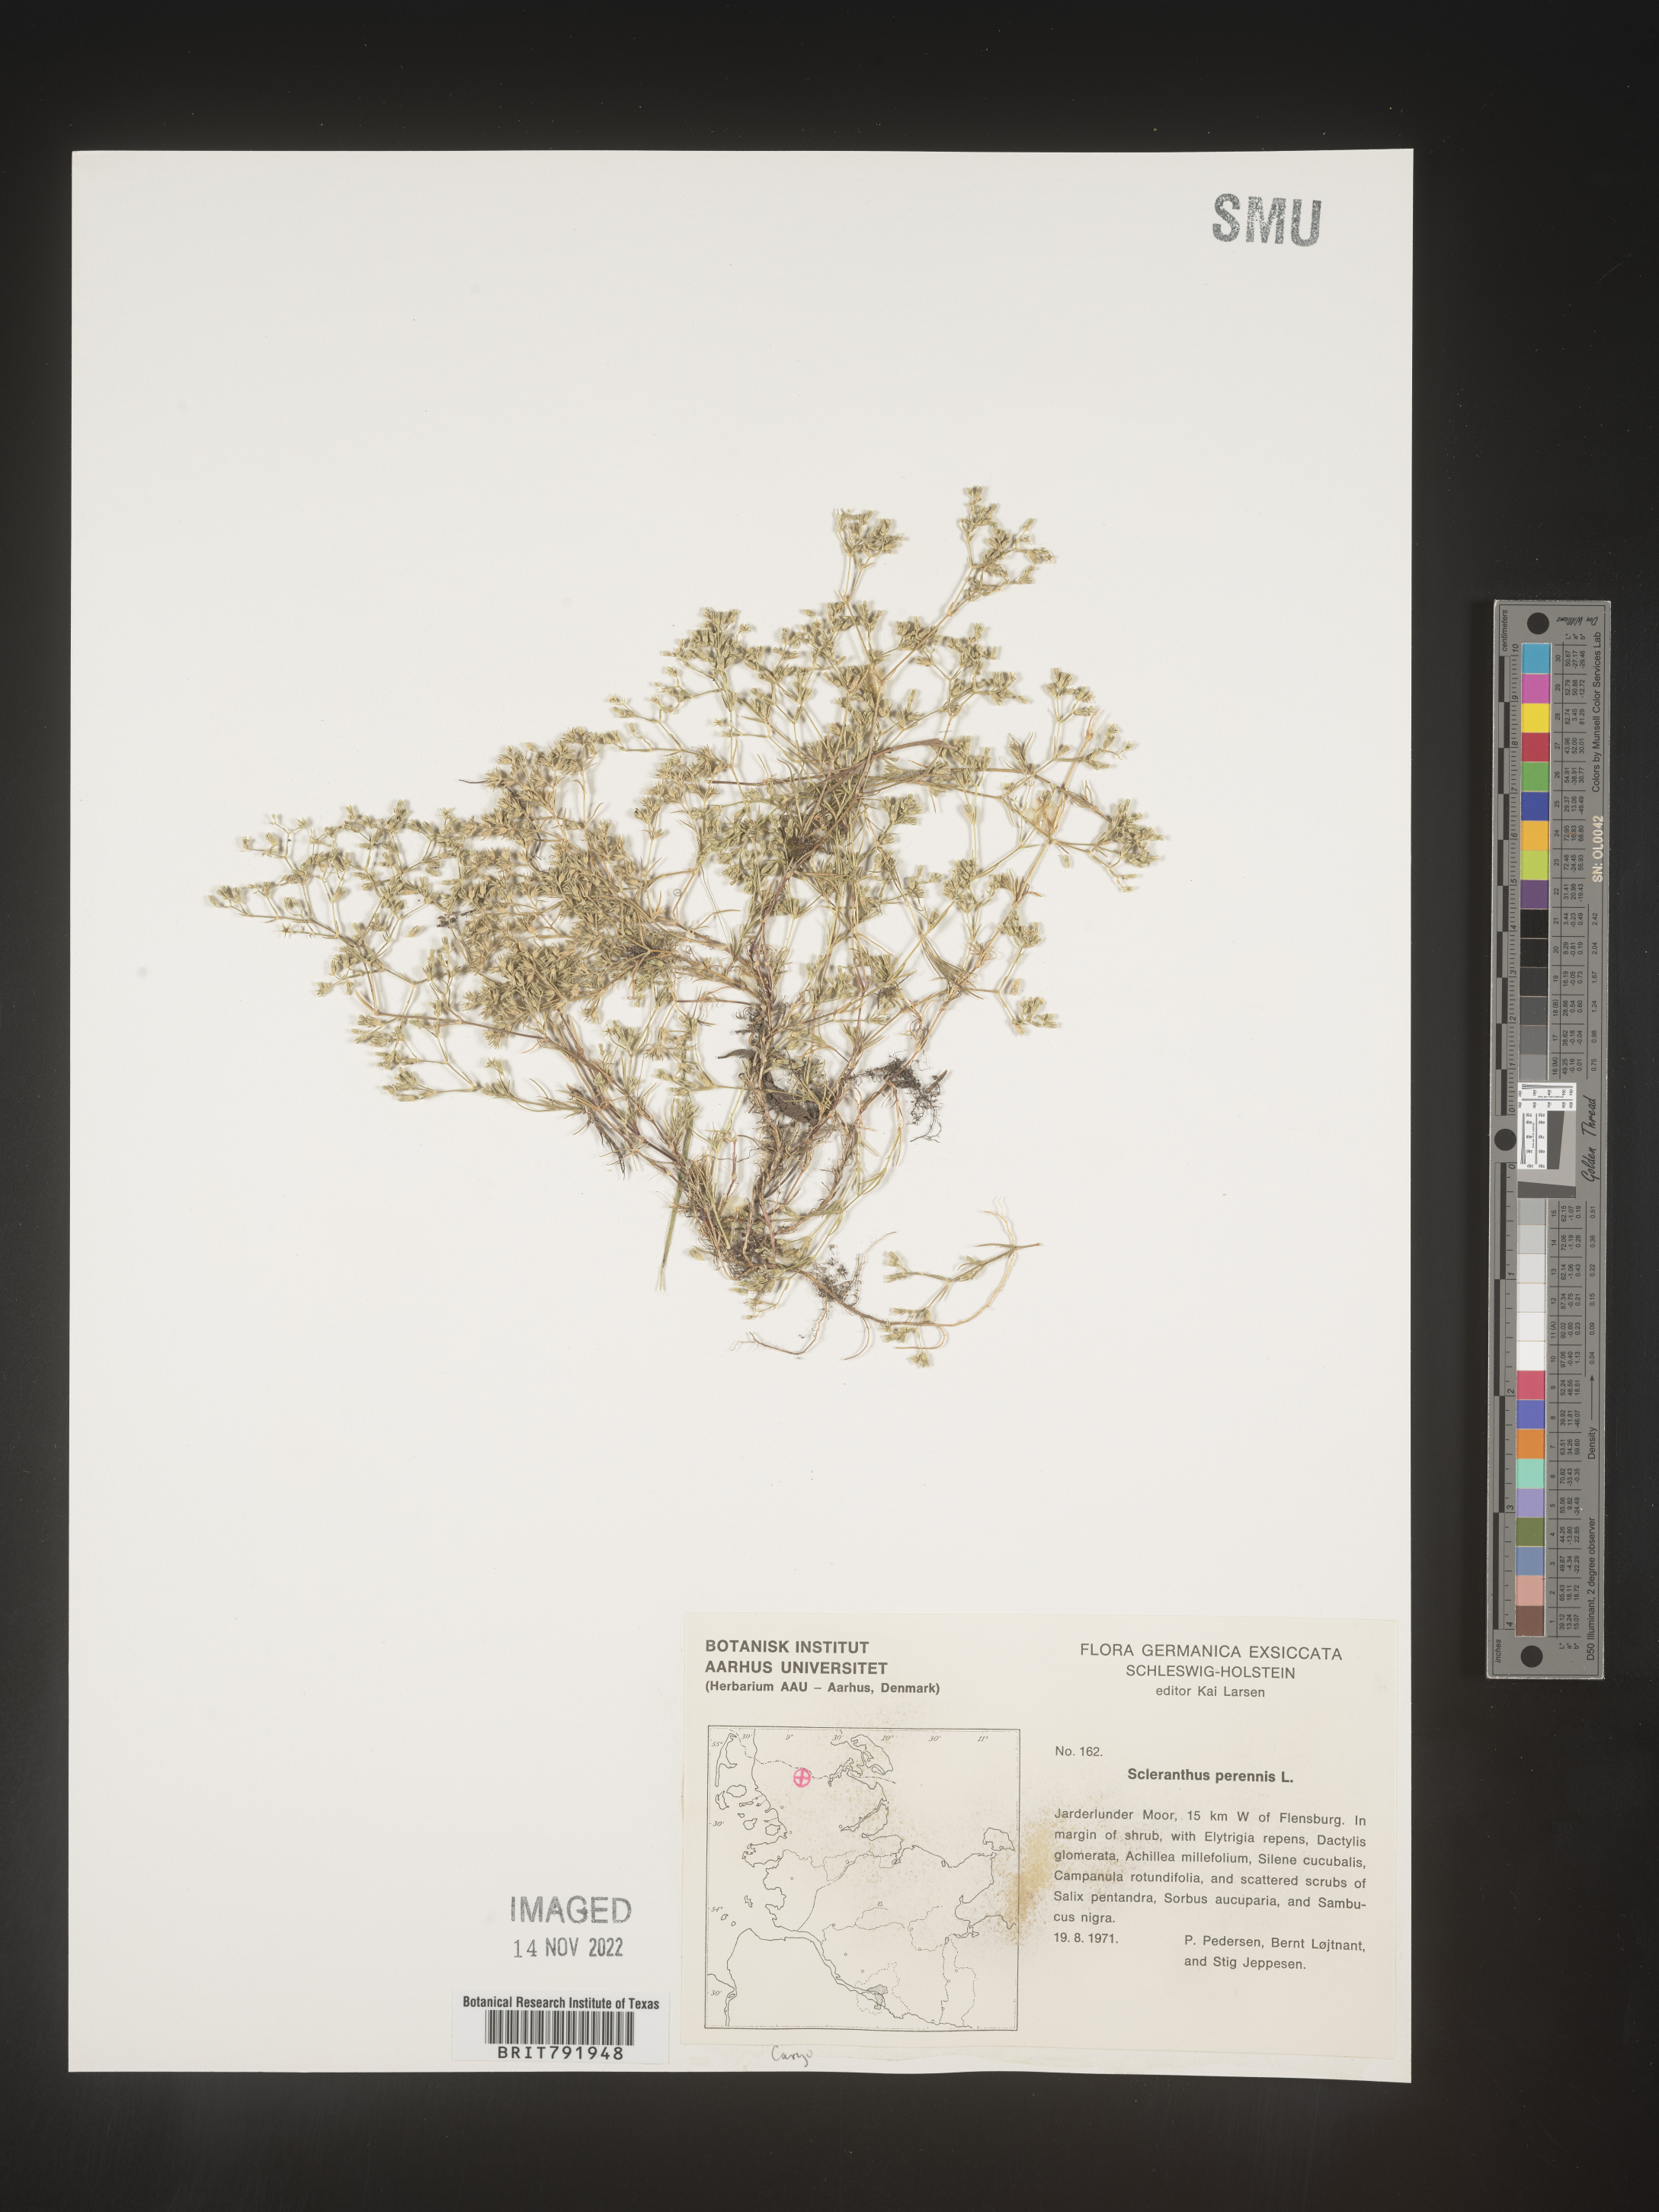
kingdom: Plantae
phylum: Tracheophyta
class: Magnoliopsida
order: Caryophyllales
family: Caryophyllaceae
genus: Scleranthus
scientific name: Scleranthus
